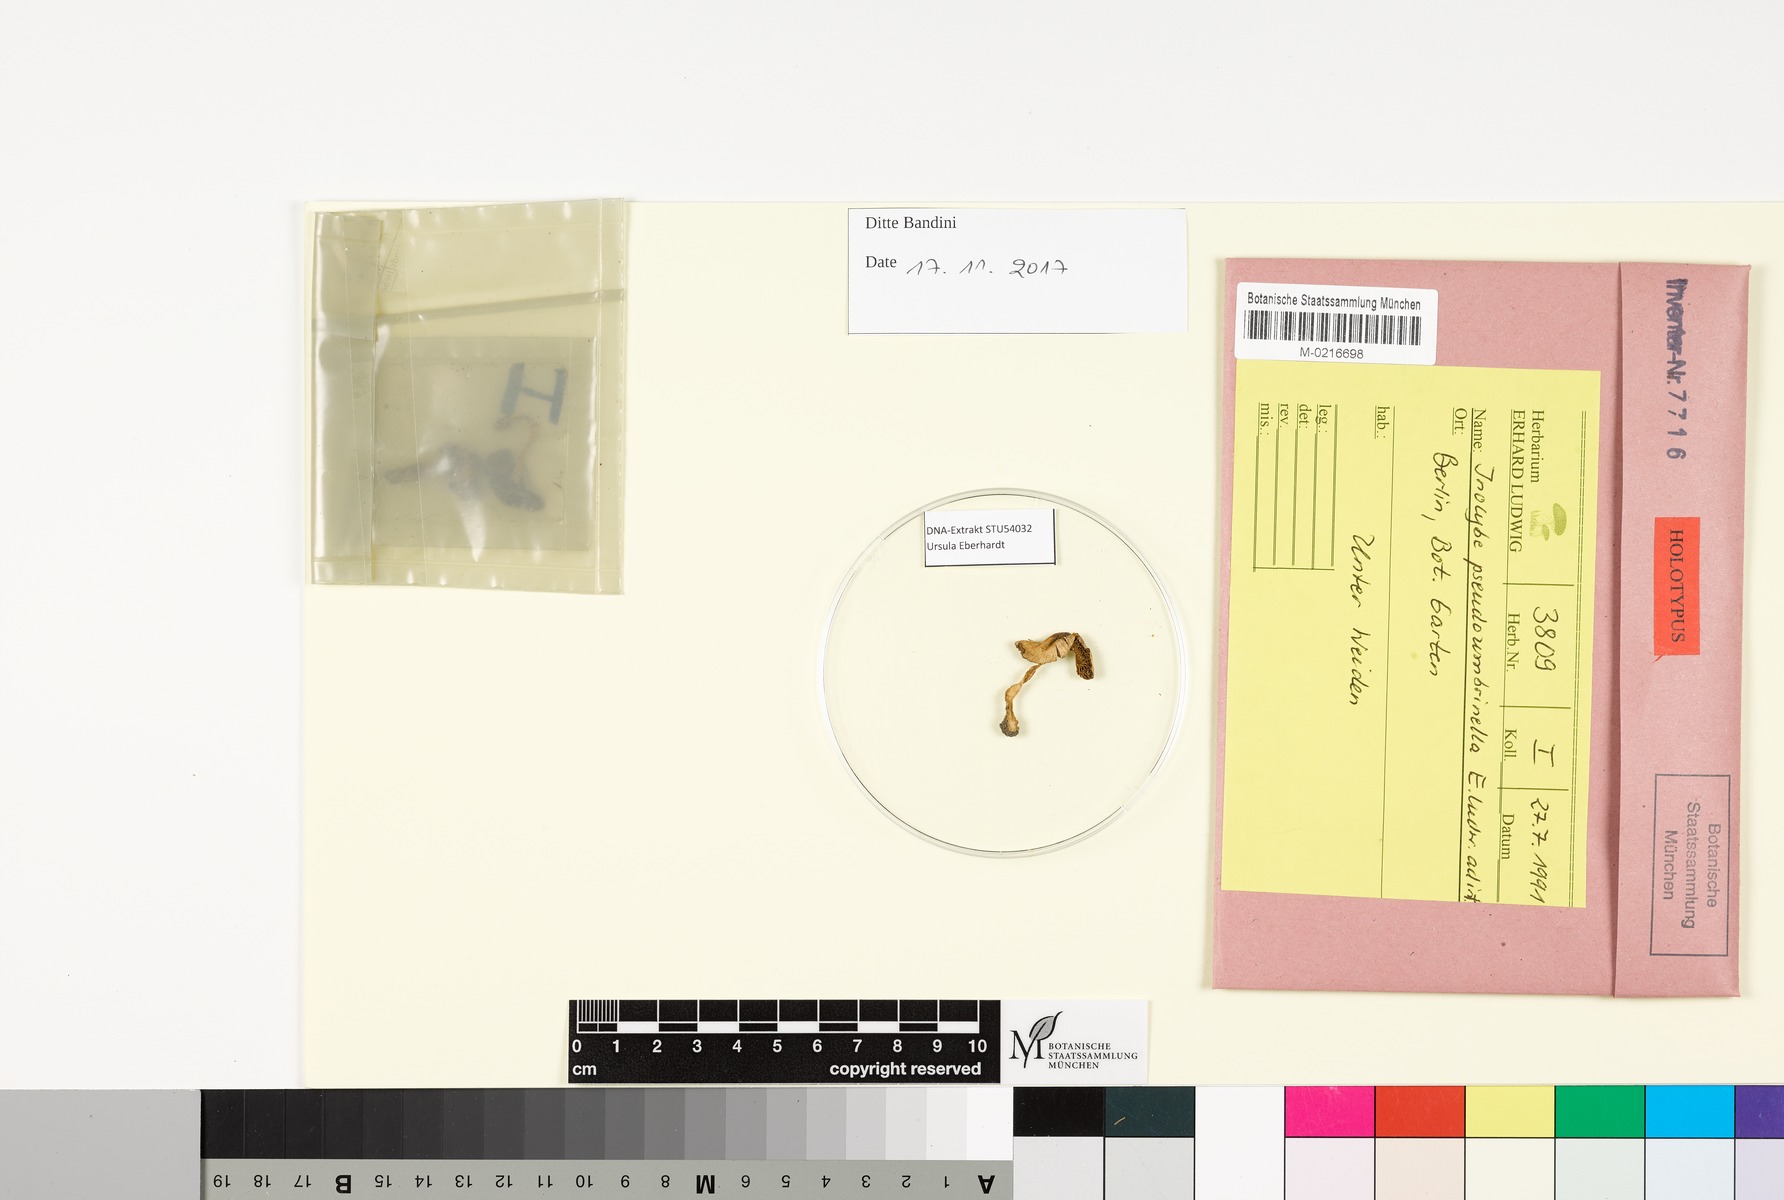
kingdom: Fungi
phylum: Basidiomycota
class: Agaricomycetes
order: Agaricales
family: Inocybaceae
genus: Pseudosperma
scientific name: Pseudosperma pseudoumbrinellum
